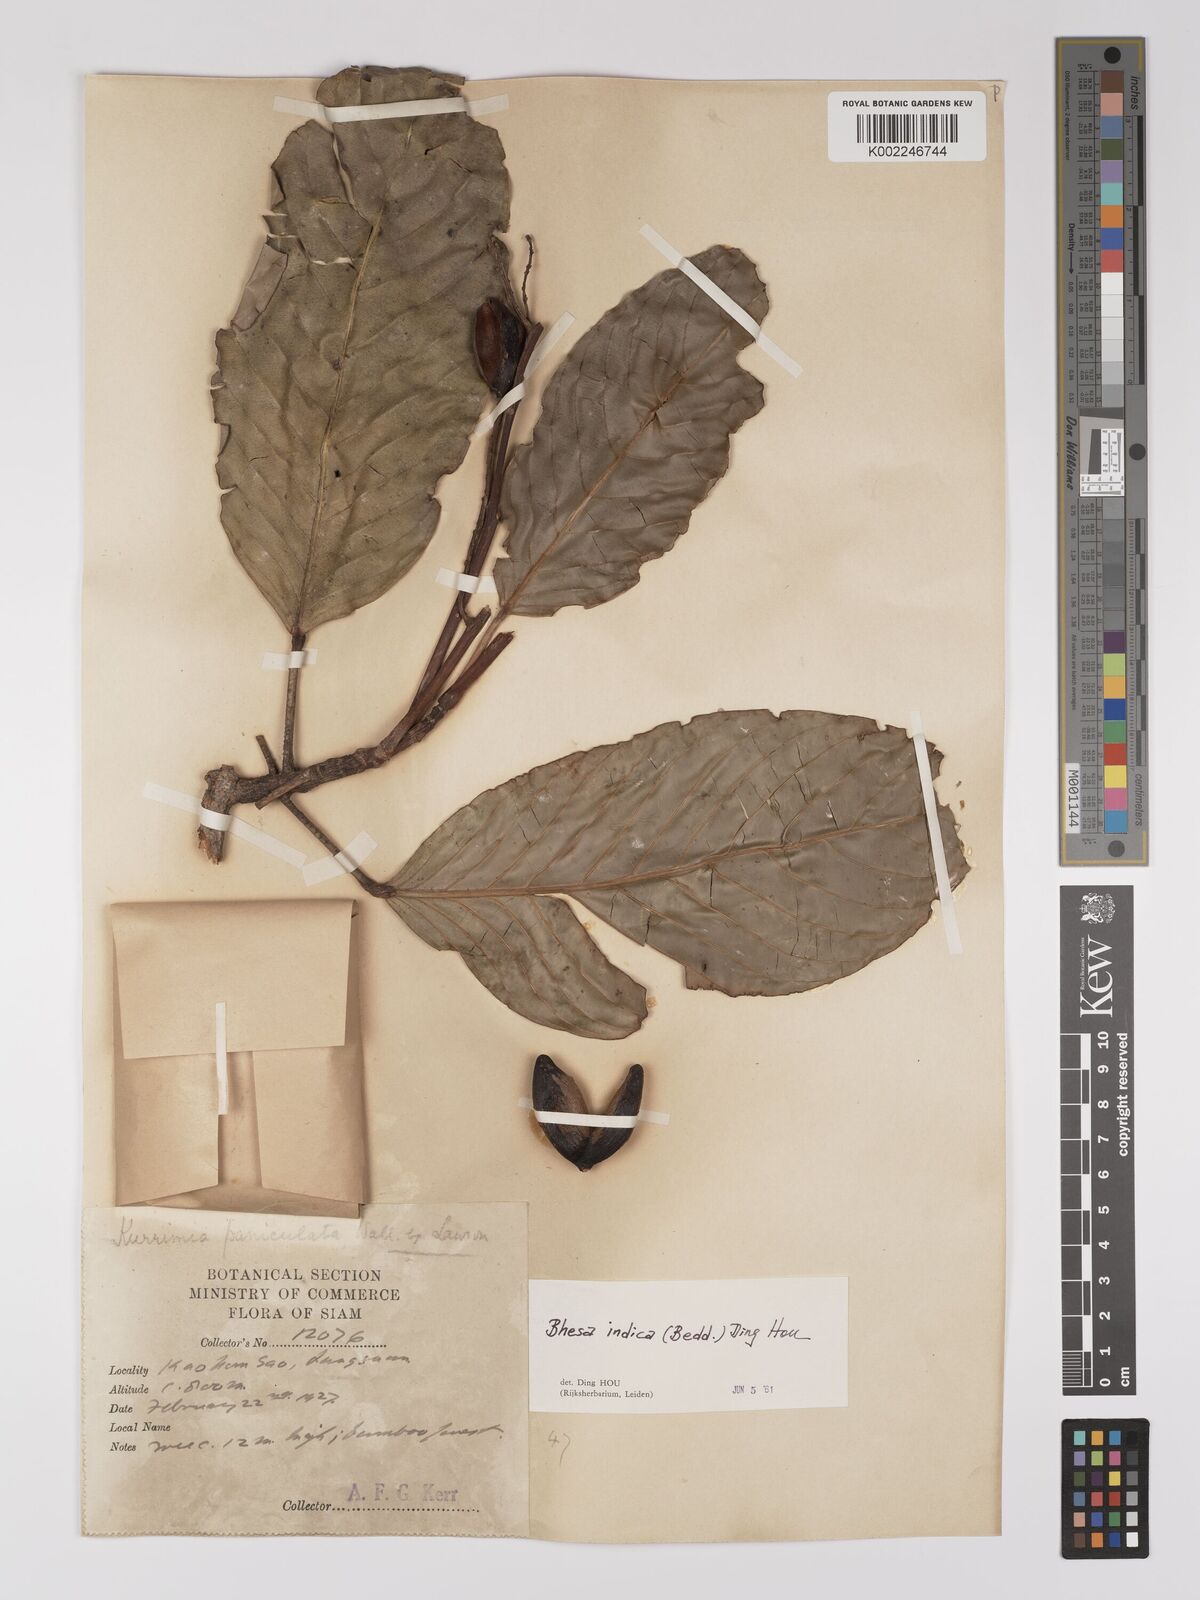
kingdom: Plantae
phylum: Tracheophyta
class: Magnoliopsida
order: Malpighiales
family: Centroplacaceae
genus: Bhesa
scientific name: Bhesa indica
